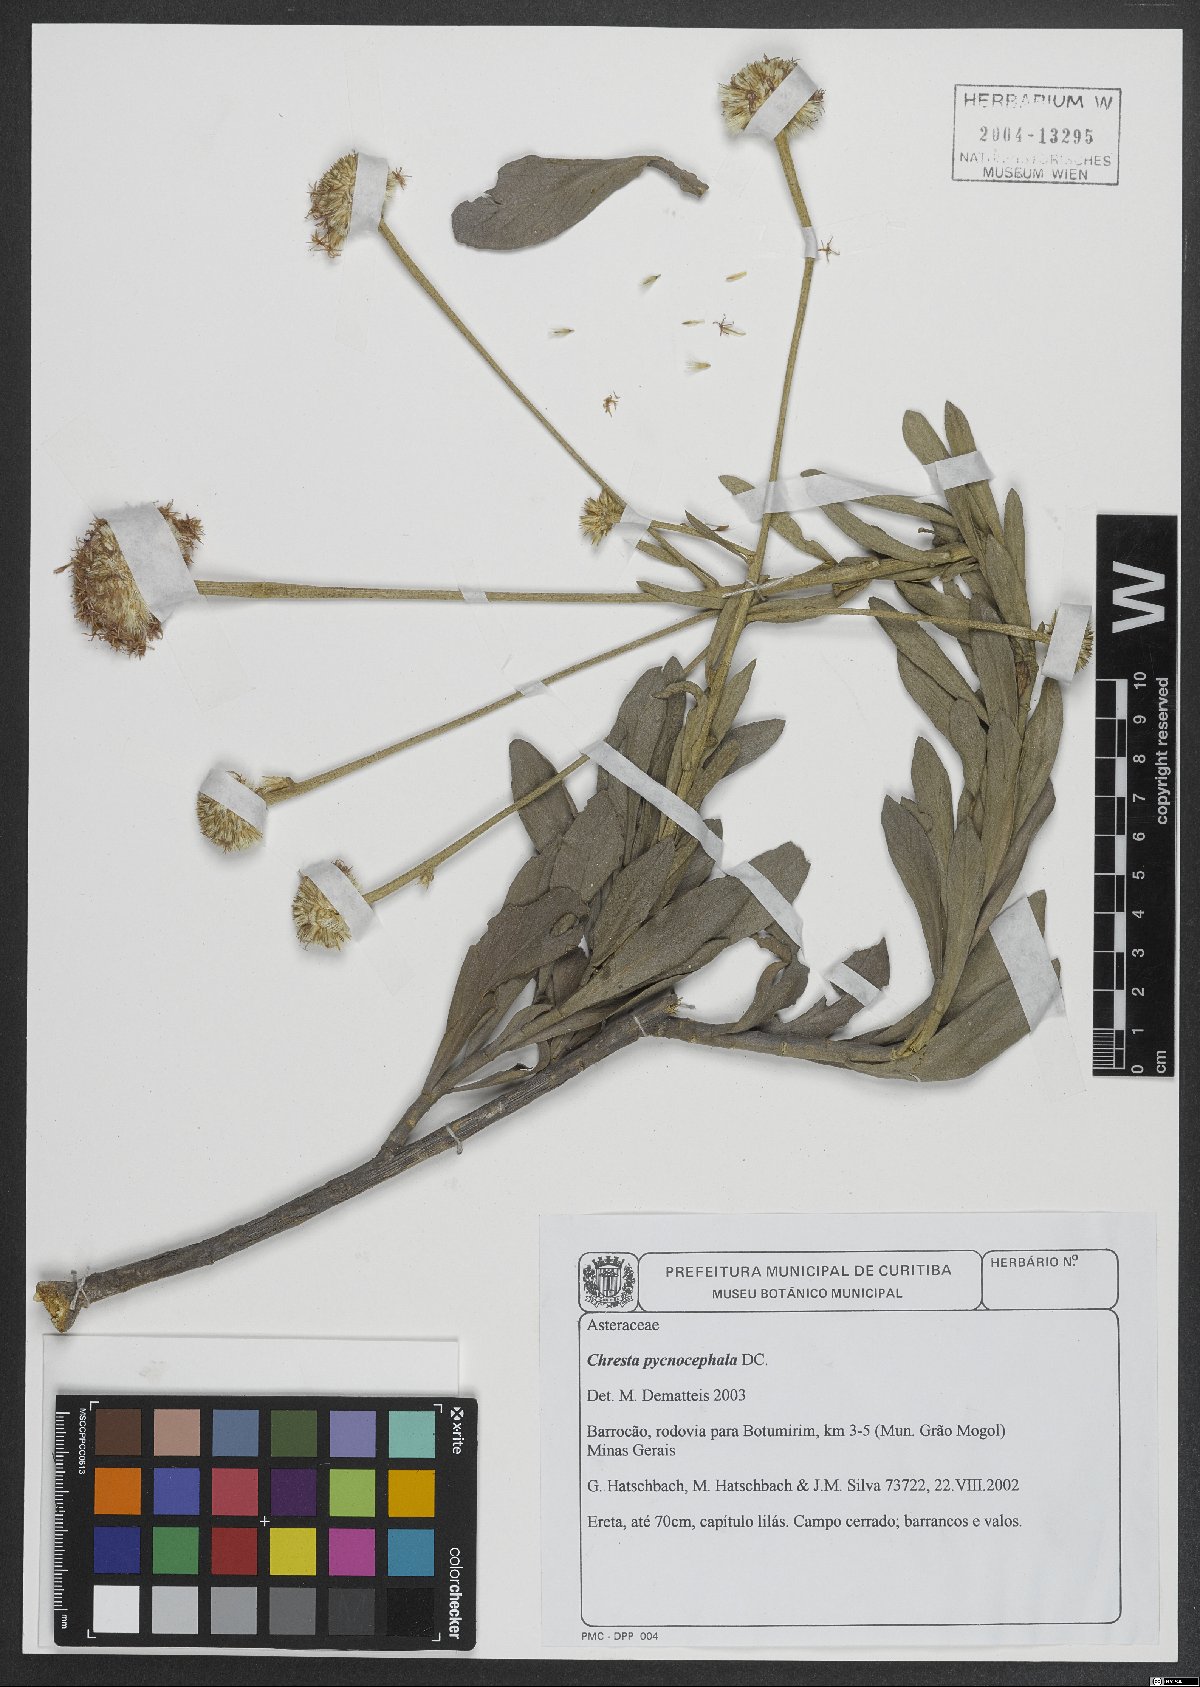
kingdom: Plantae
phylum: Tracheophyta
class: Magnoliopsida
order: Asterales
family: Asteraceae
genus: Chresta
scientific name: Chresta pycnocephala
